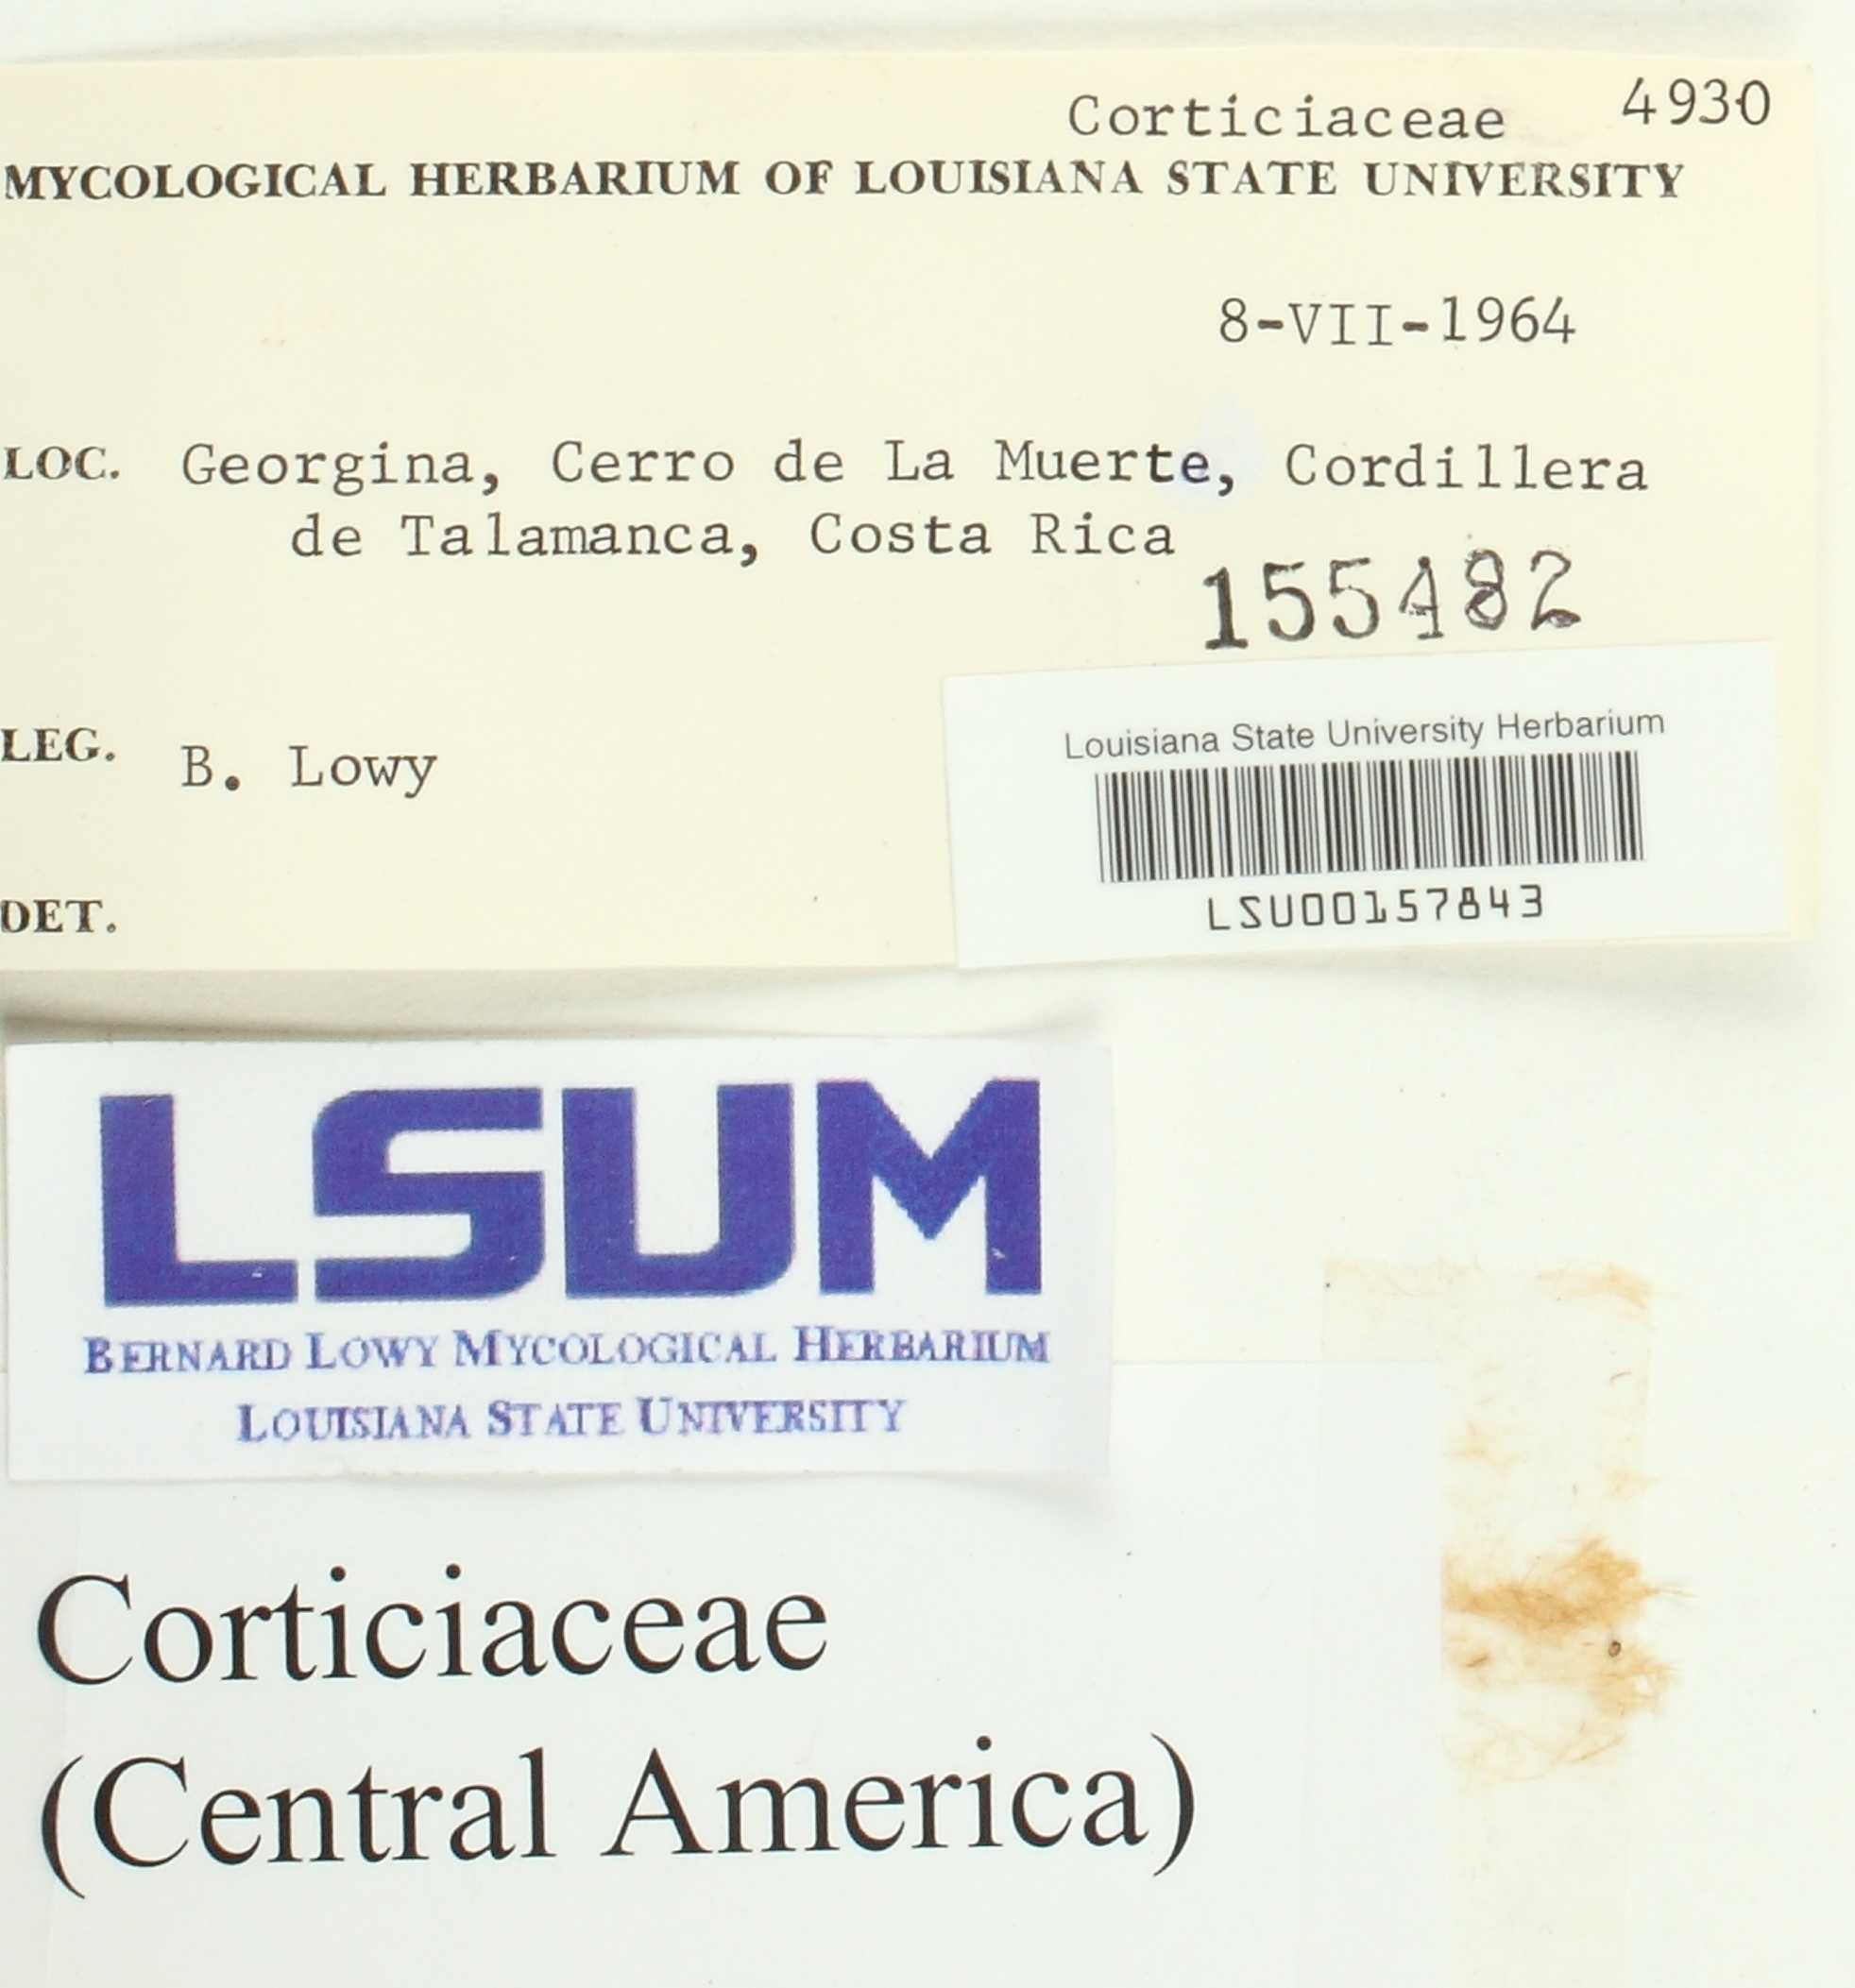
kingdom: Fungi
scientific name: Fungi
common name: Fungi
